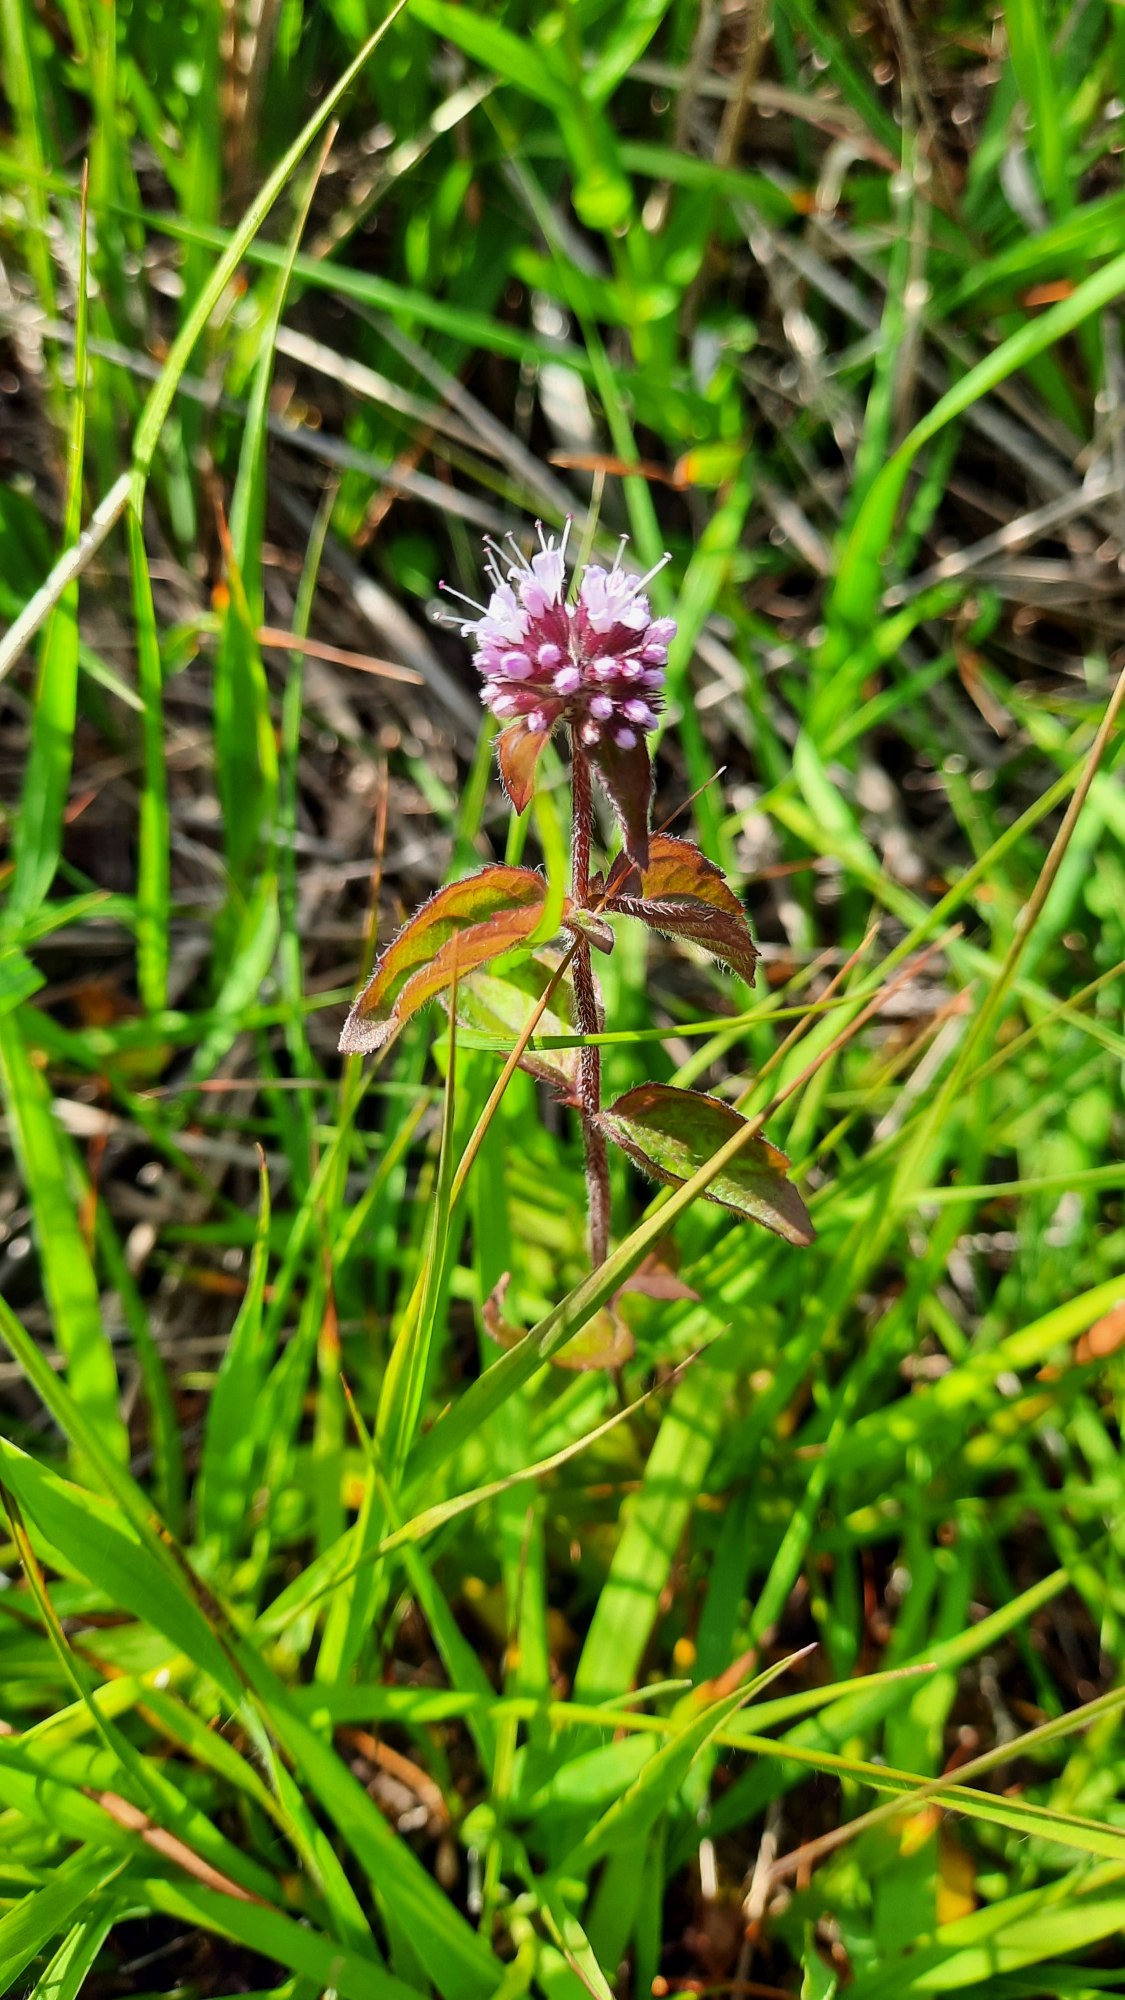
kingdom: Plantae
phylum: Tracheophyta
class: Magnoliopsida
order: Lamiales
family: Lamiaceae
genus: Mentha
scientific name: Mentha aquatica
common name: Vand-mynte
